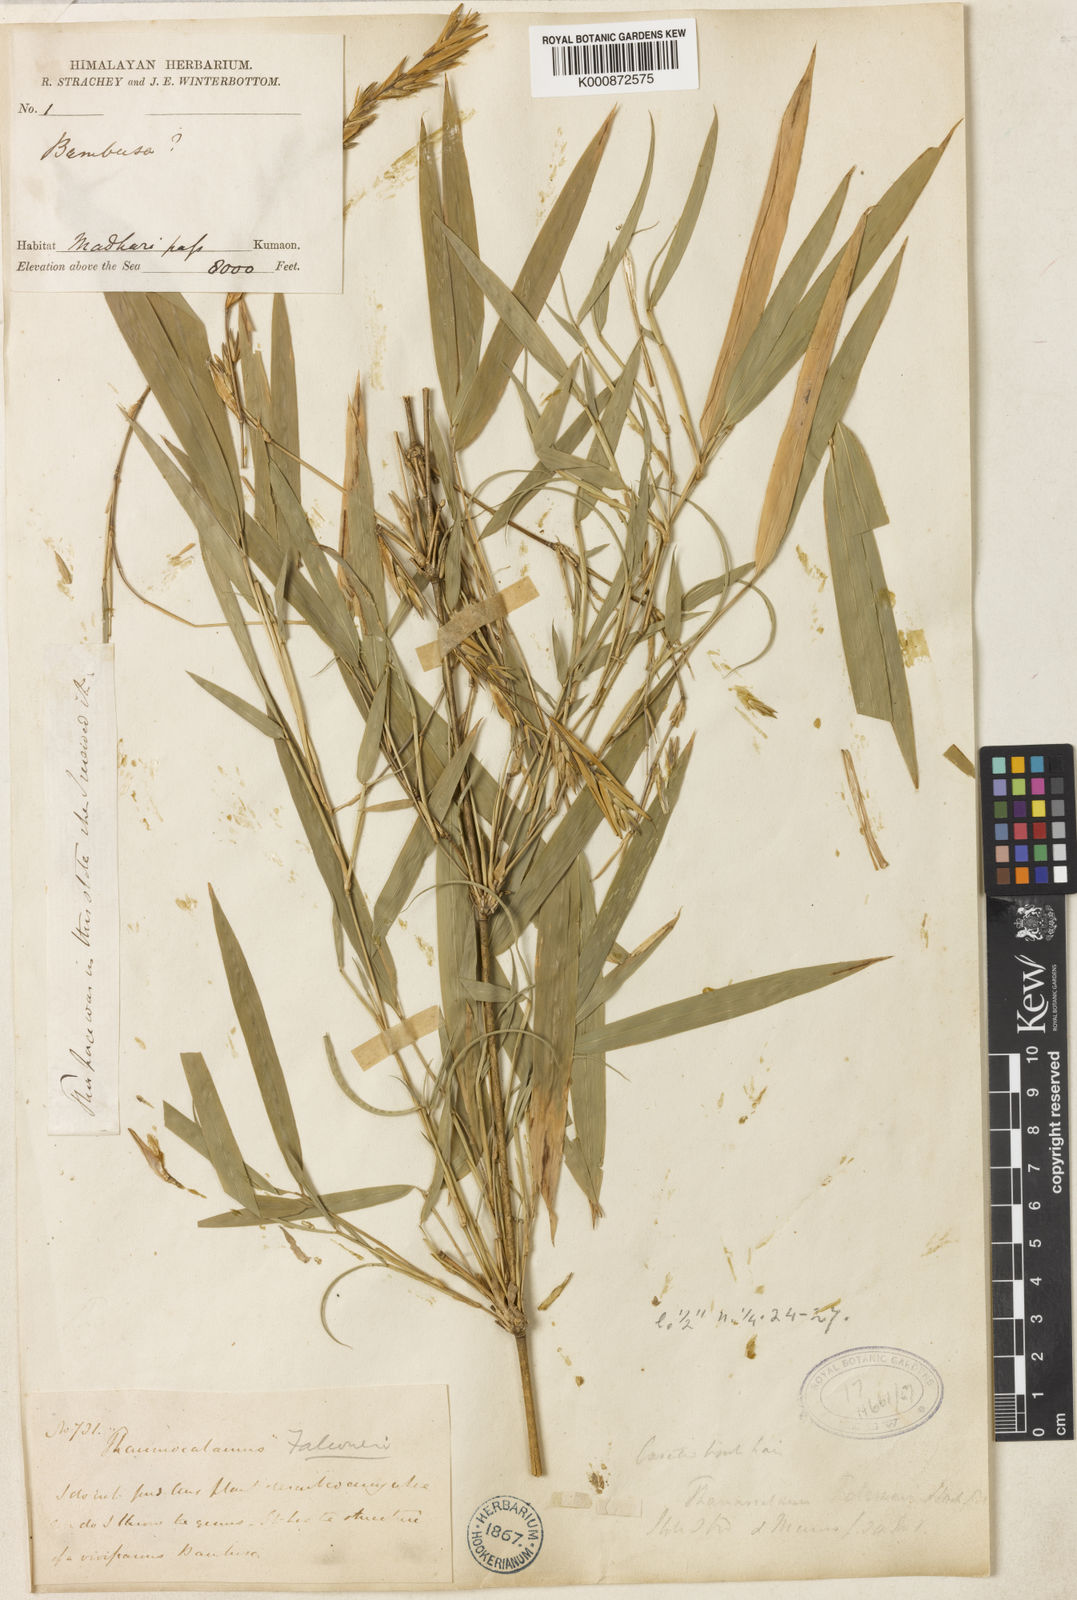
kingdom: Plantae
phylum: Tracheophyta
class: Liliopsida
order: Poales
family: Poaceae
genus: Himalayacalamus
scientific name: Himalayacalamus hookerianus
